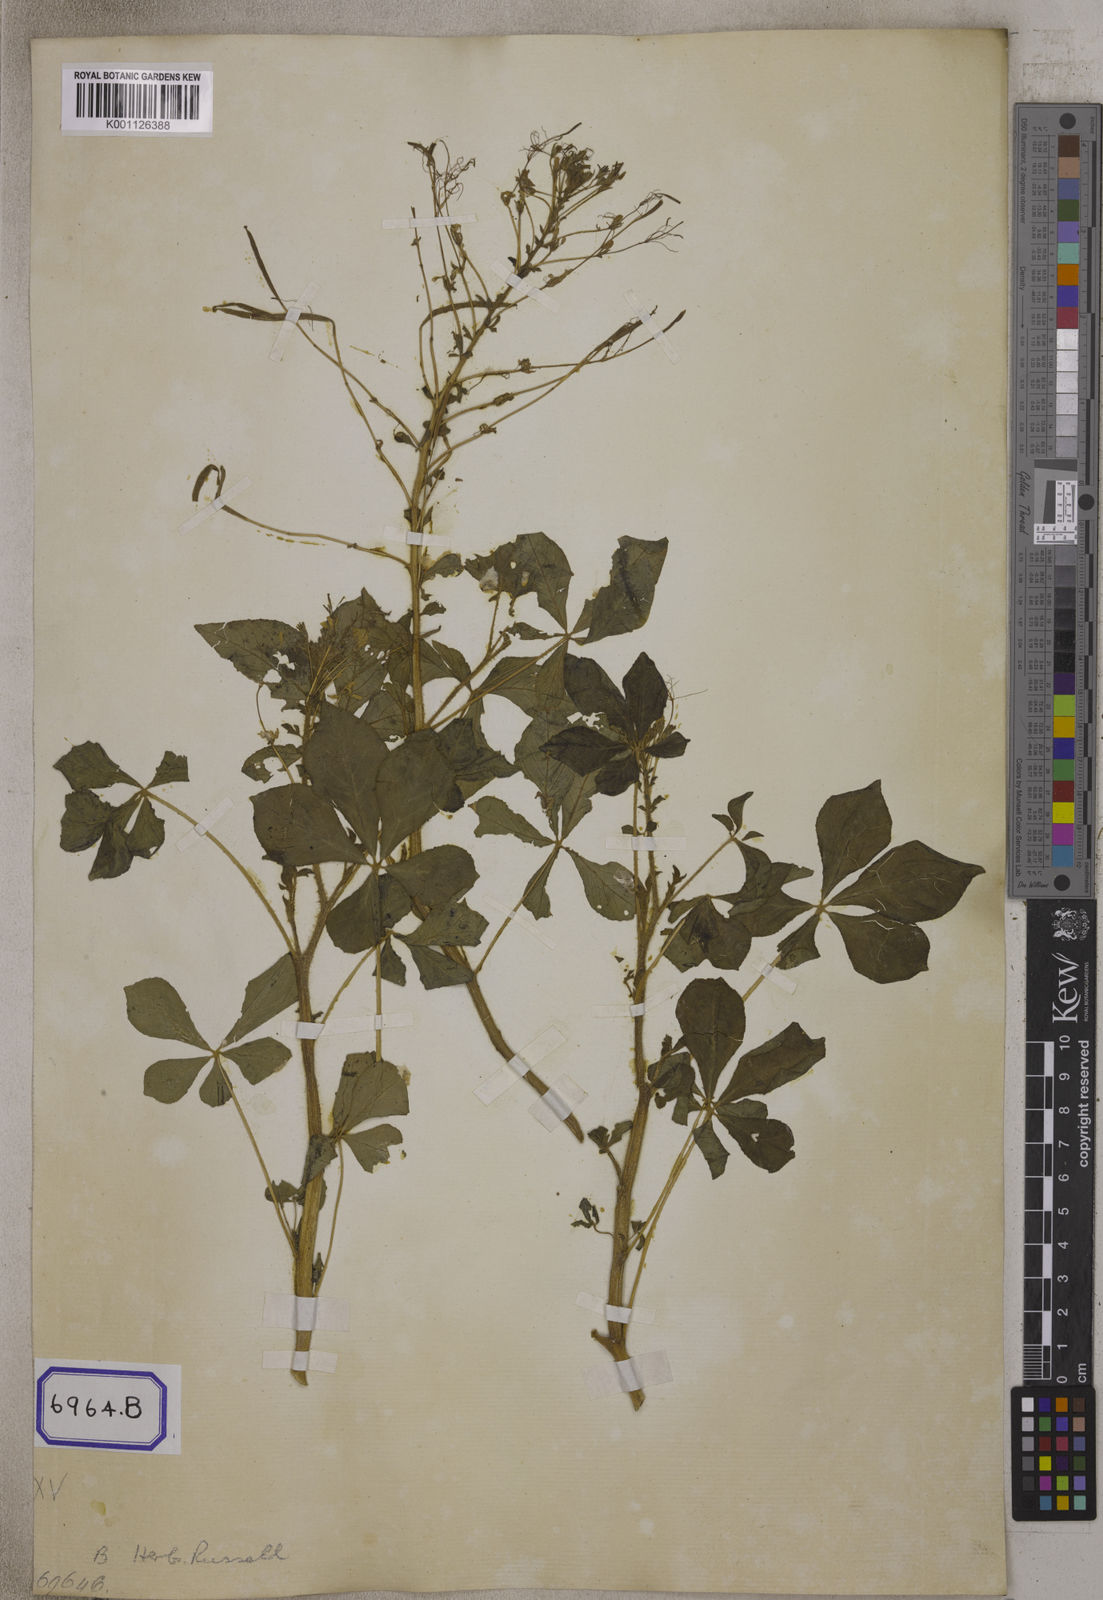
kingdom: Plantae
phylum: Tracheophyta
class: Magnoliopsida
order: Brassicales
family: Cleomaceae
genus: Gynandropsis
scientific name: Gynandropsis gynandra
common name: Spiderwisp
